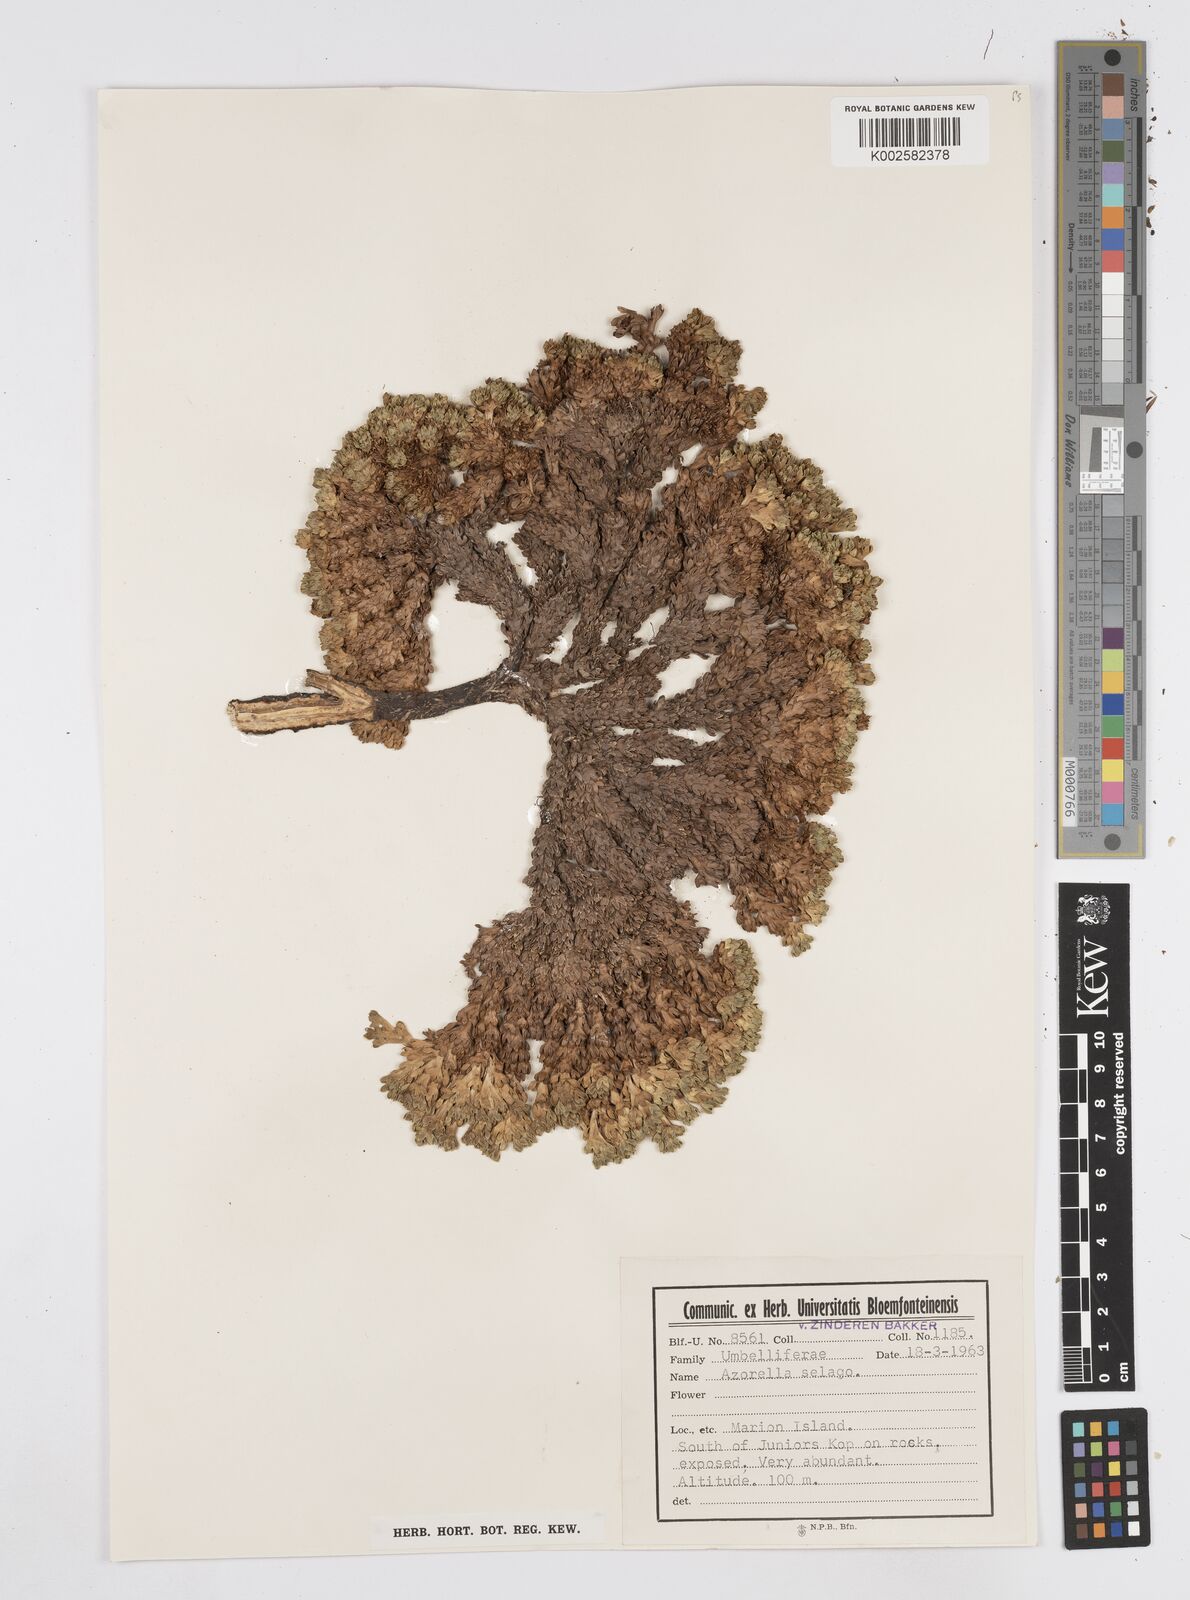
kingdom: Plantae
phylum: Tracheophyta
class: Magnoliopsida
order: Apiales
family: Apiaceae
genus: Azorella
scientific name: Azorella selago
